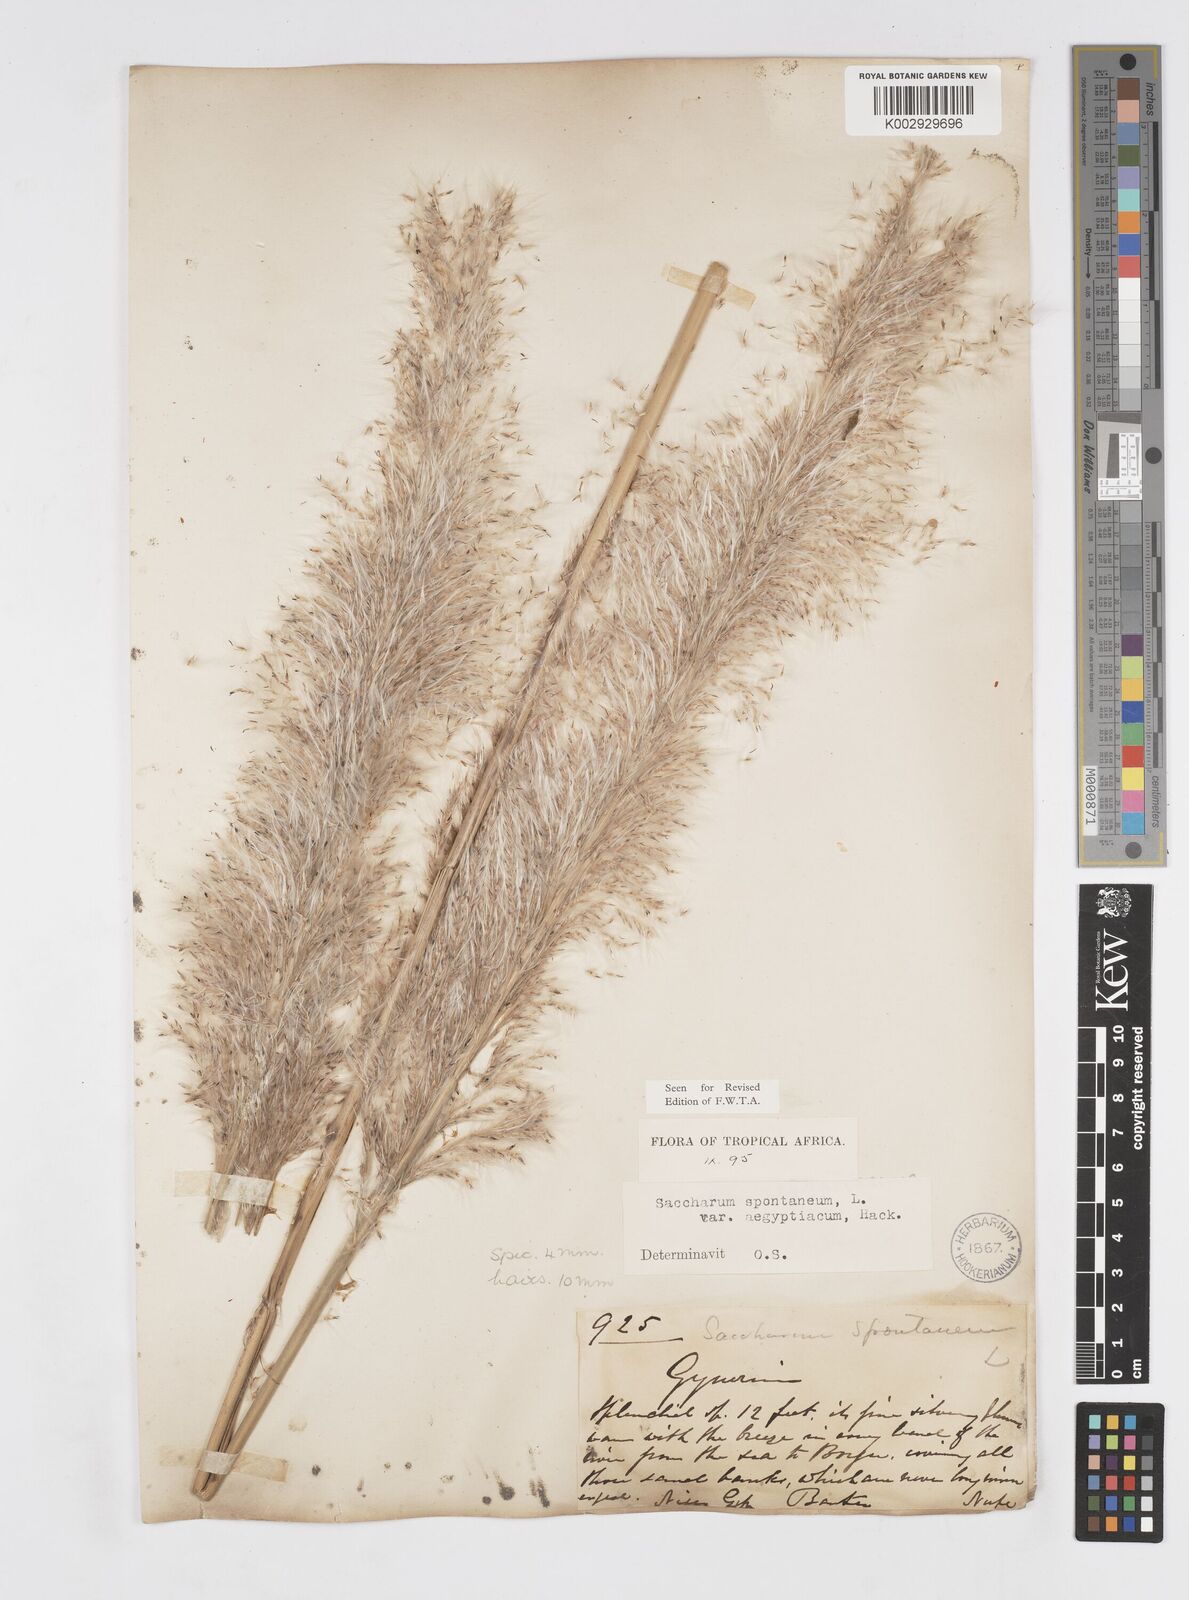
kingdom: Plantae
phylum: Tracheophyta
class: Liliopsida
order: Poales
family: Poaceae
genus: Saccharum
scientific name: Saccharum spontaneum
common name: Wild sugarcane
